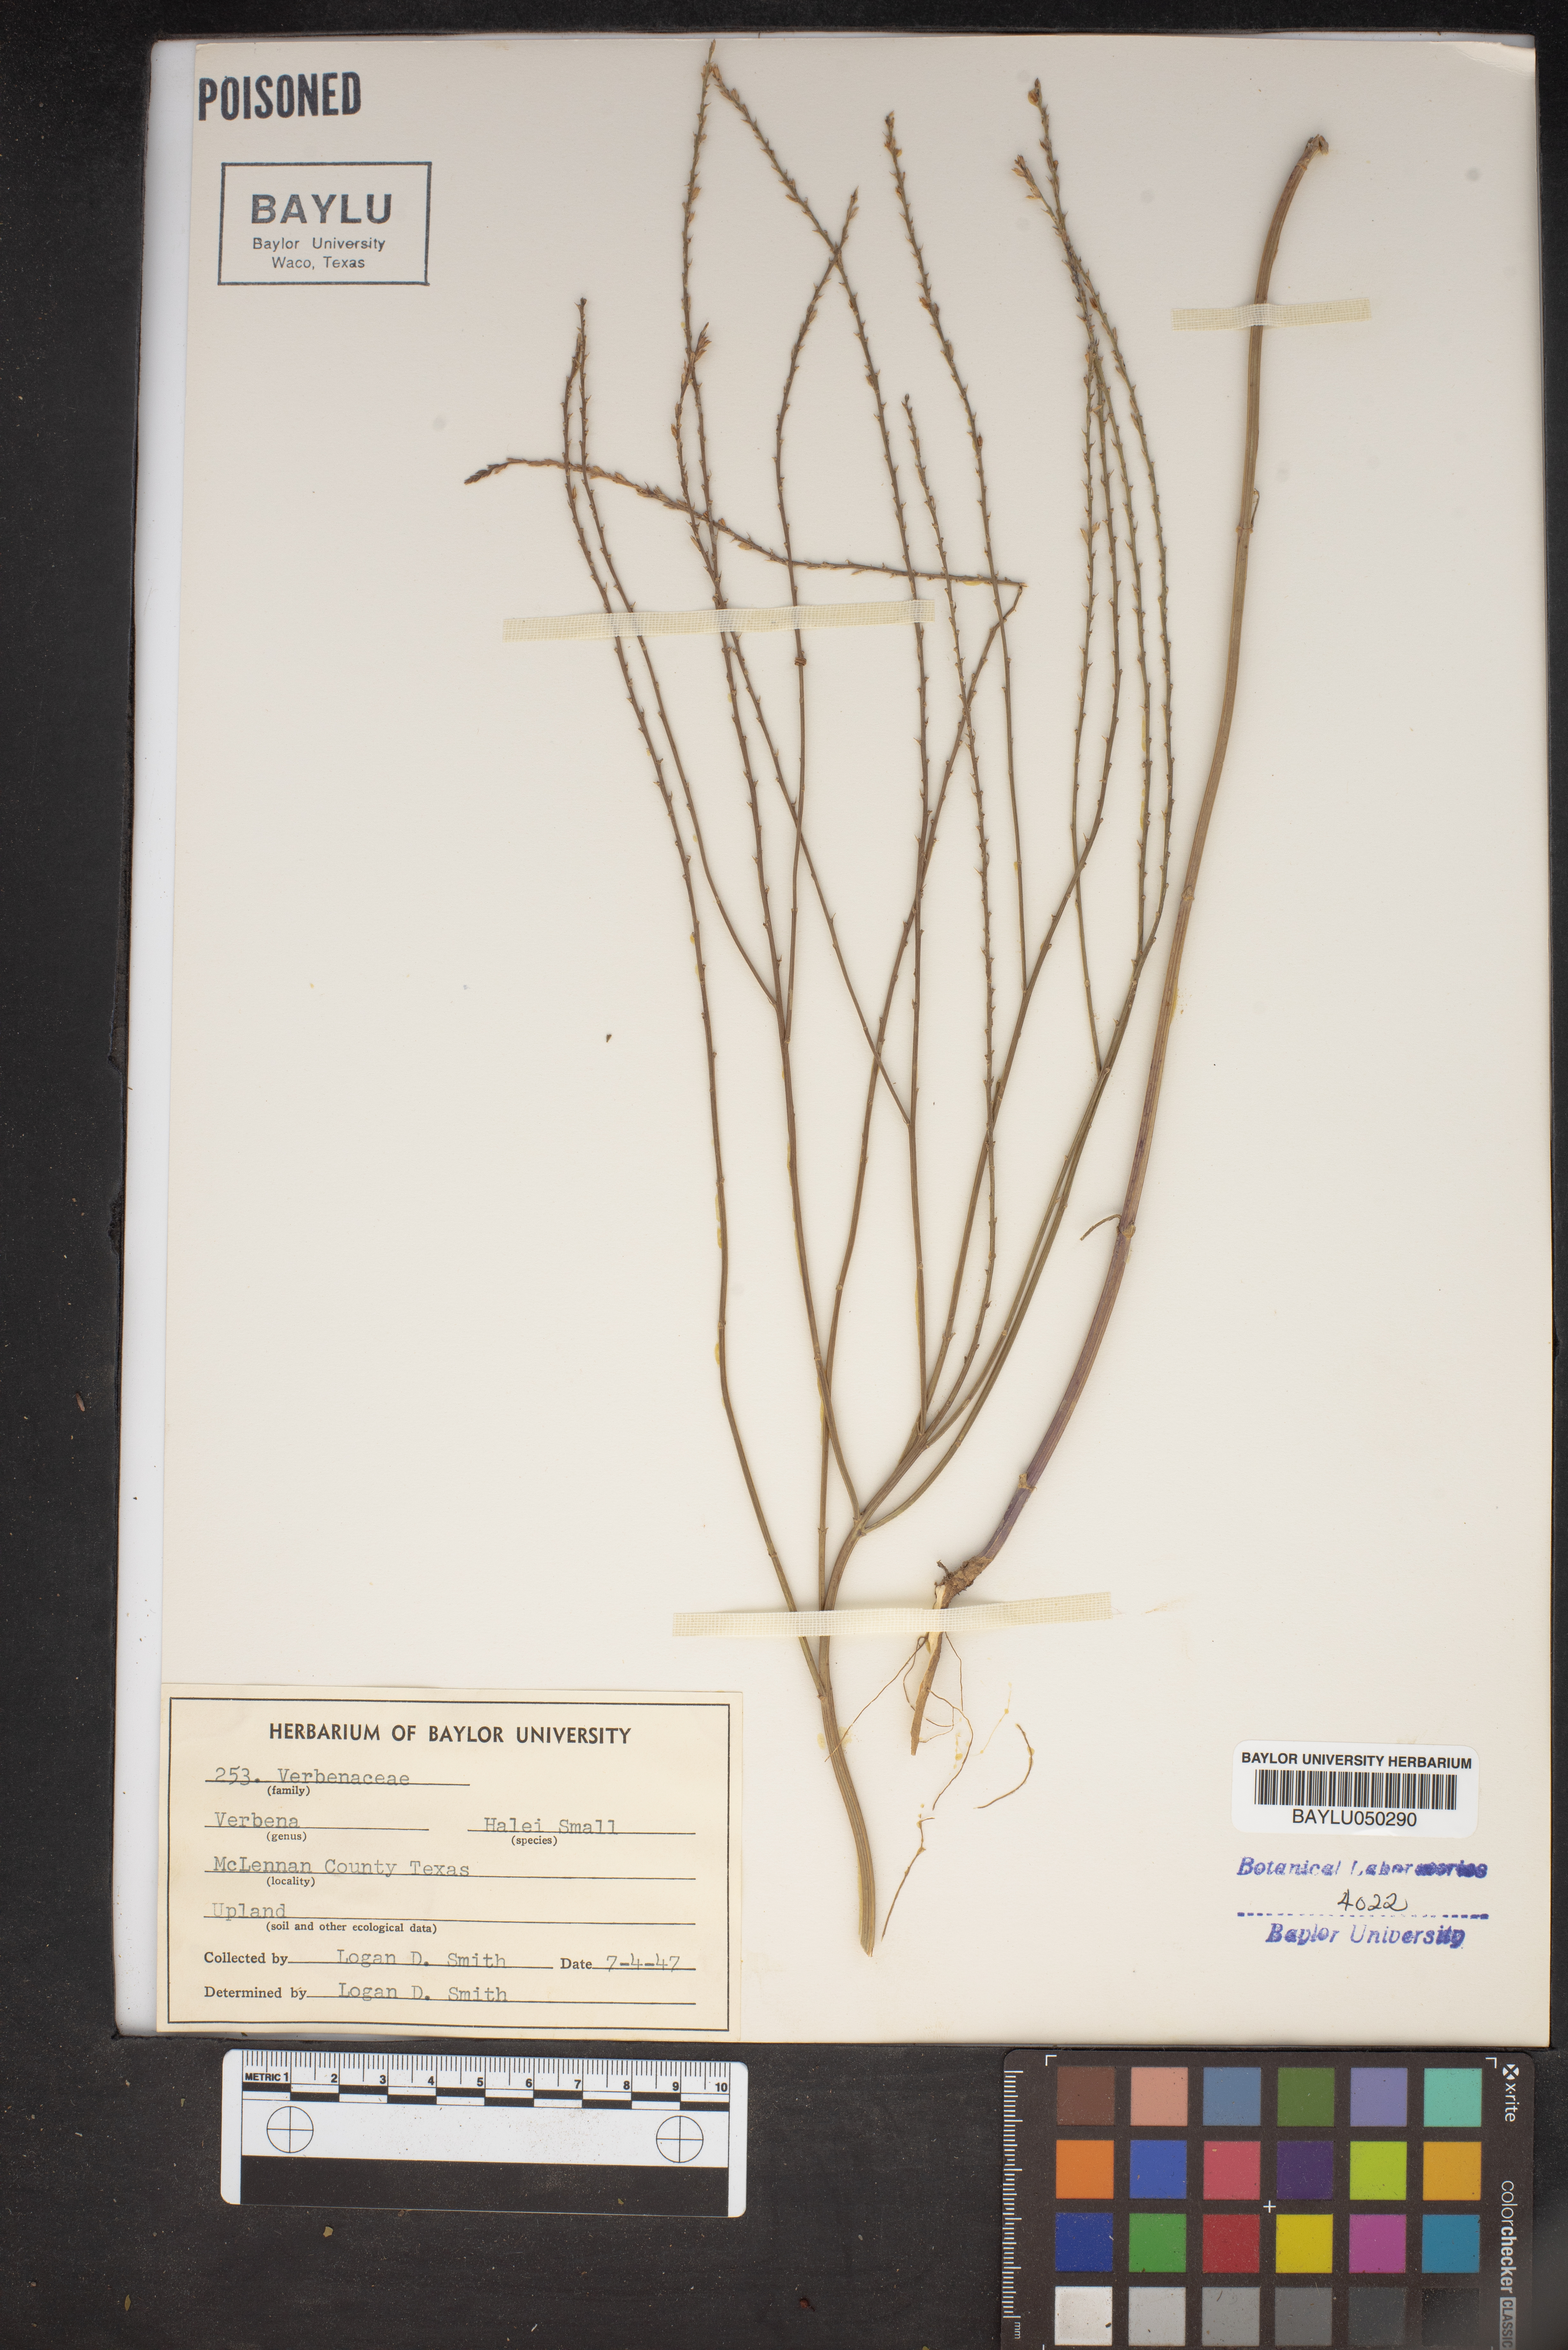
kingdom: Plantae
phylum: Tracheophyta
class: Magnoliopsida
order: Lamiales
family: Verbenaceae
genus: Verbena
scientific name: Verbena halei
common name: Texas vervain
